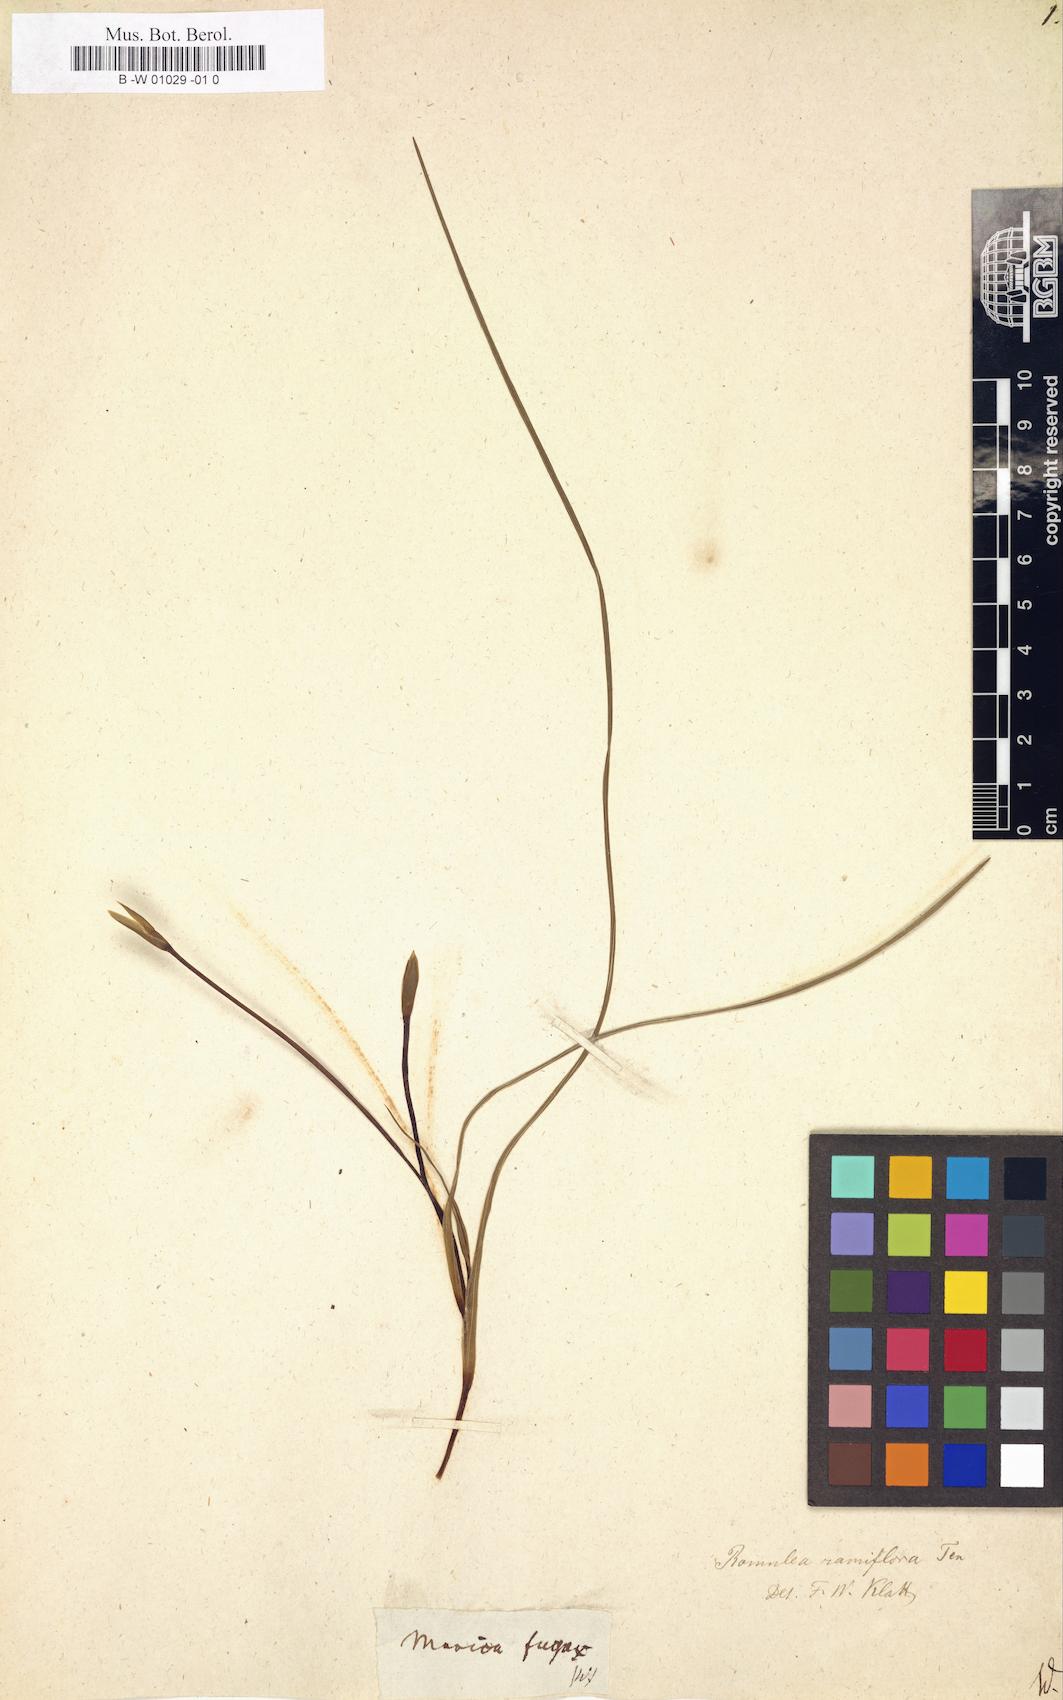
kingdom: Plantae
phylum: Tracheophyta
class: Liliopsida
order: Asparagales
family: Iridaceae
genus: Cipura
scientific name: Cipura Marica fugax
